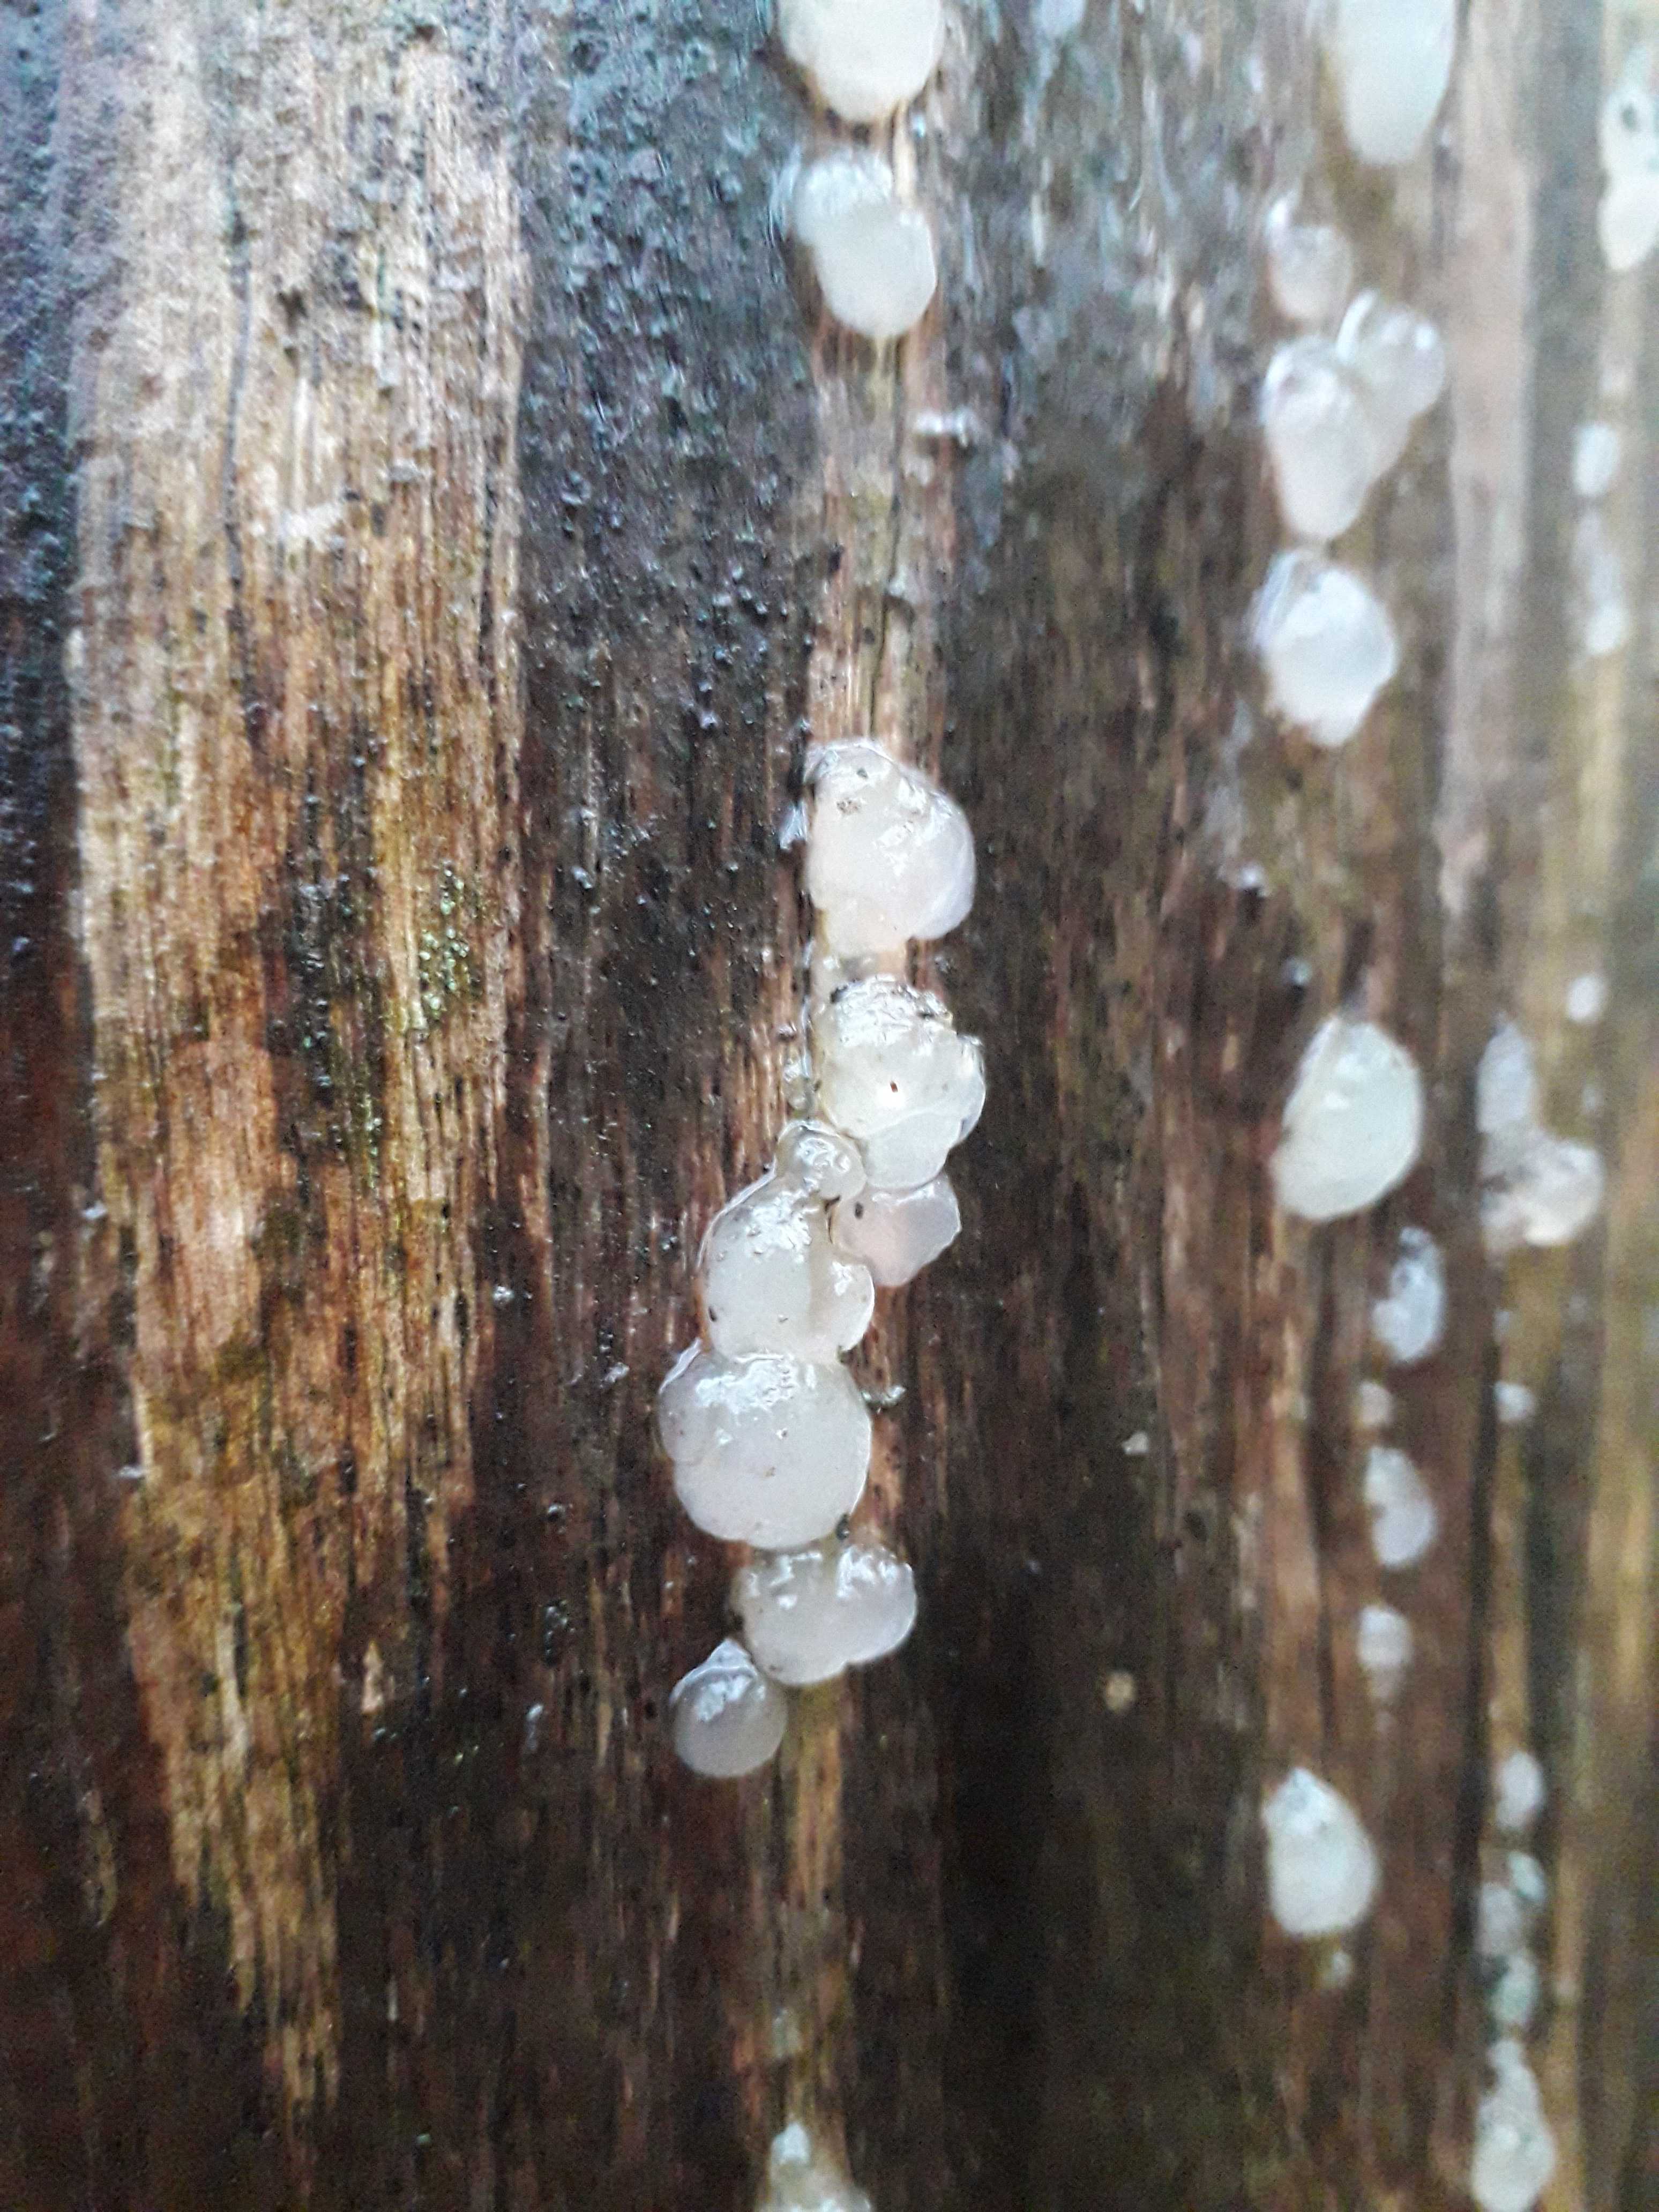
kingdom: Fungi
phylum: Basidiomycota
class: Agaricomycetes
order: Auriculariales
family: Hyaloriaceae
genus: Myxarium
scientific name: Myxarium
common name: bævretop
